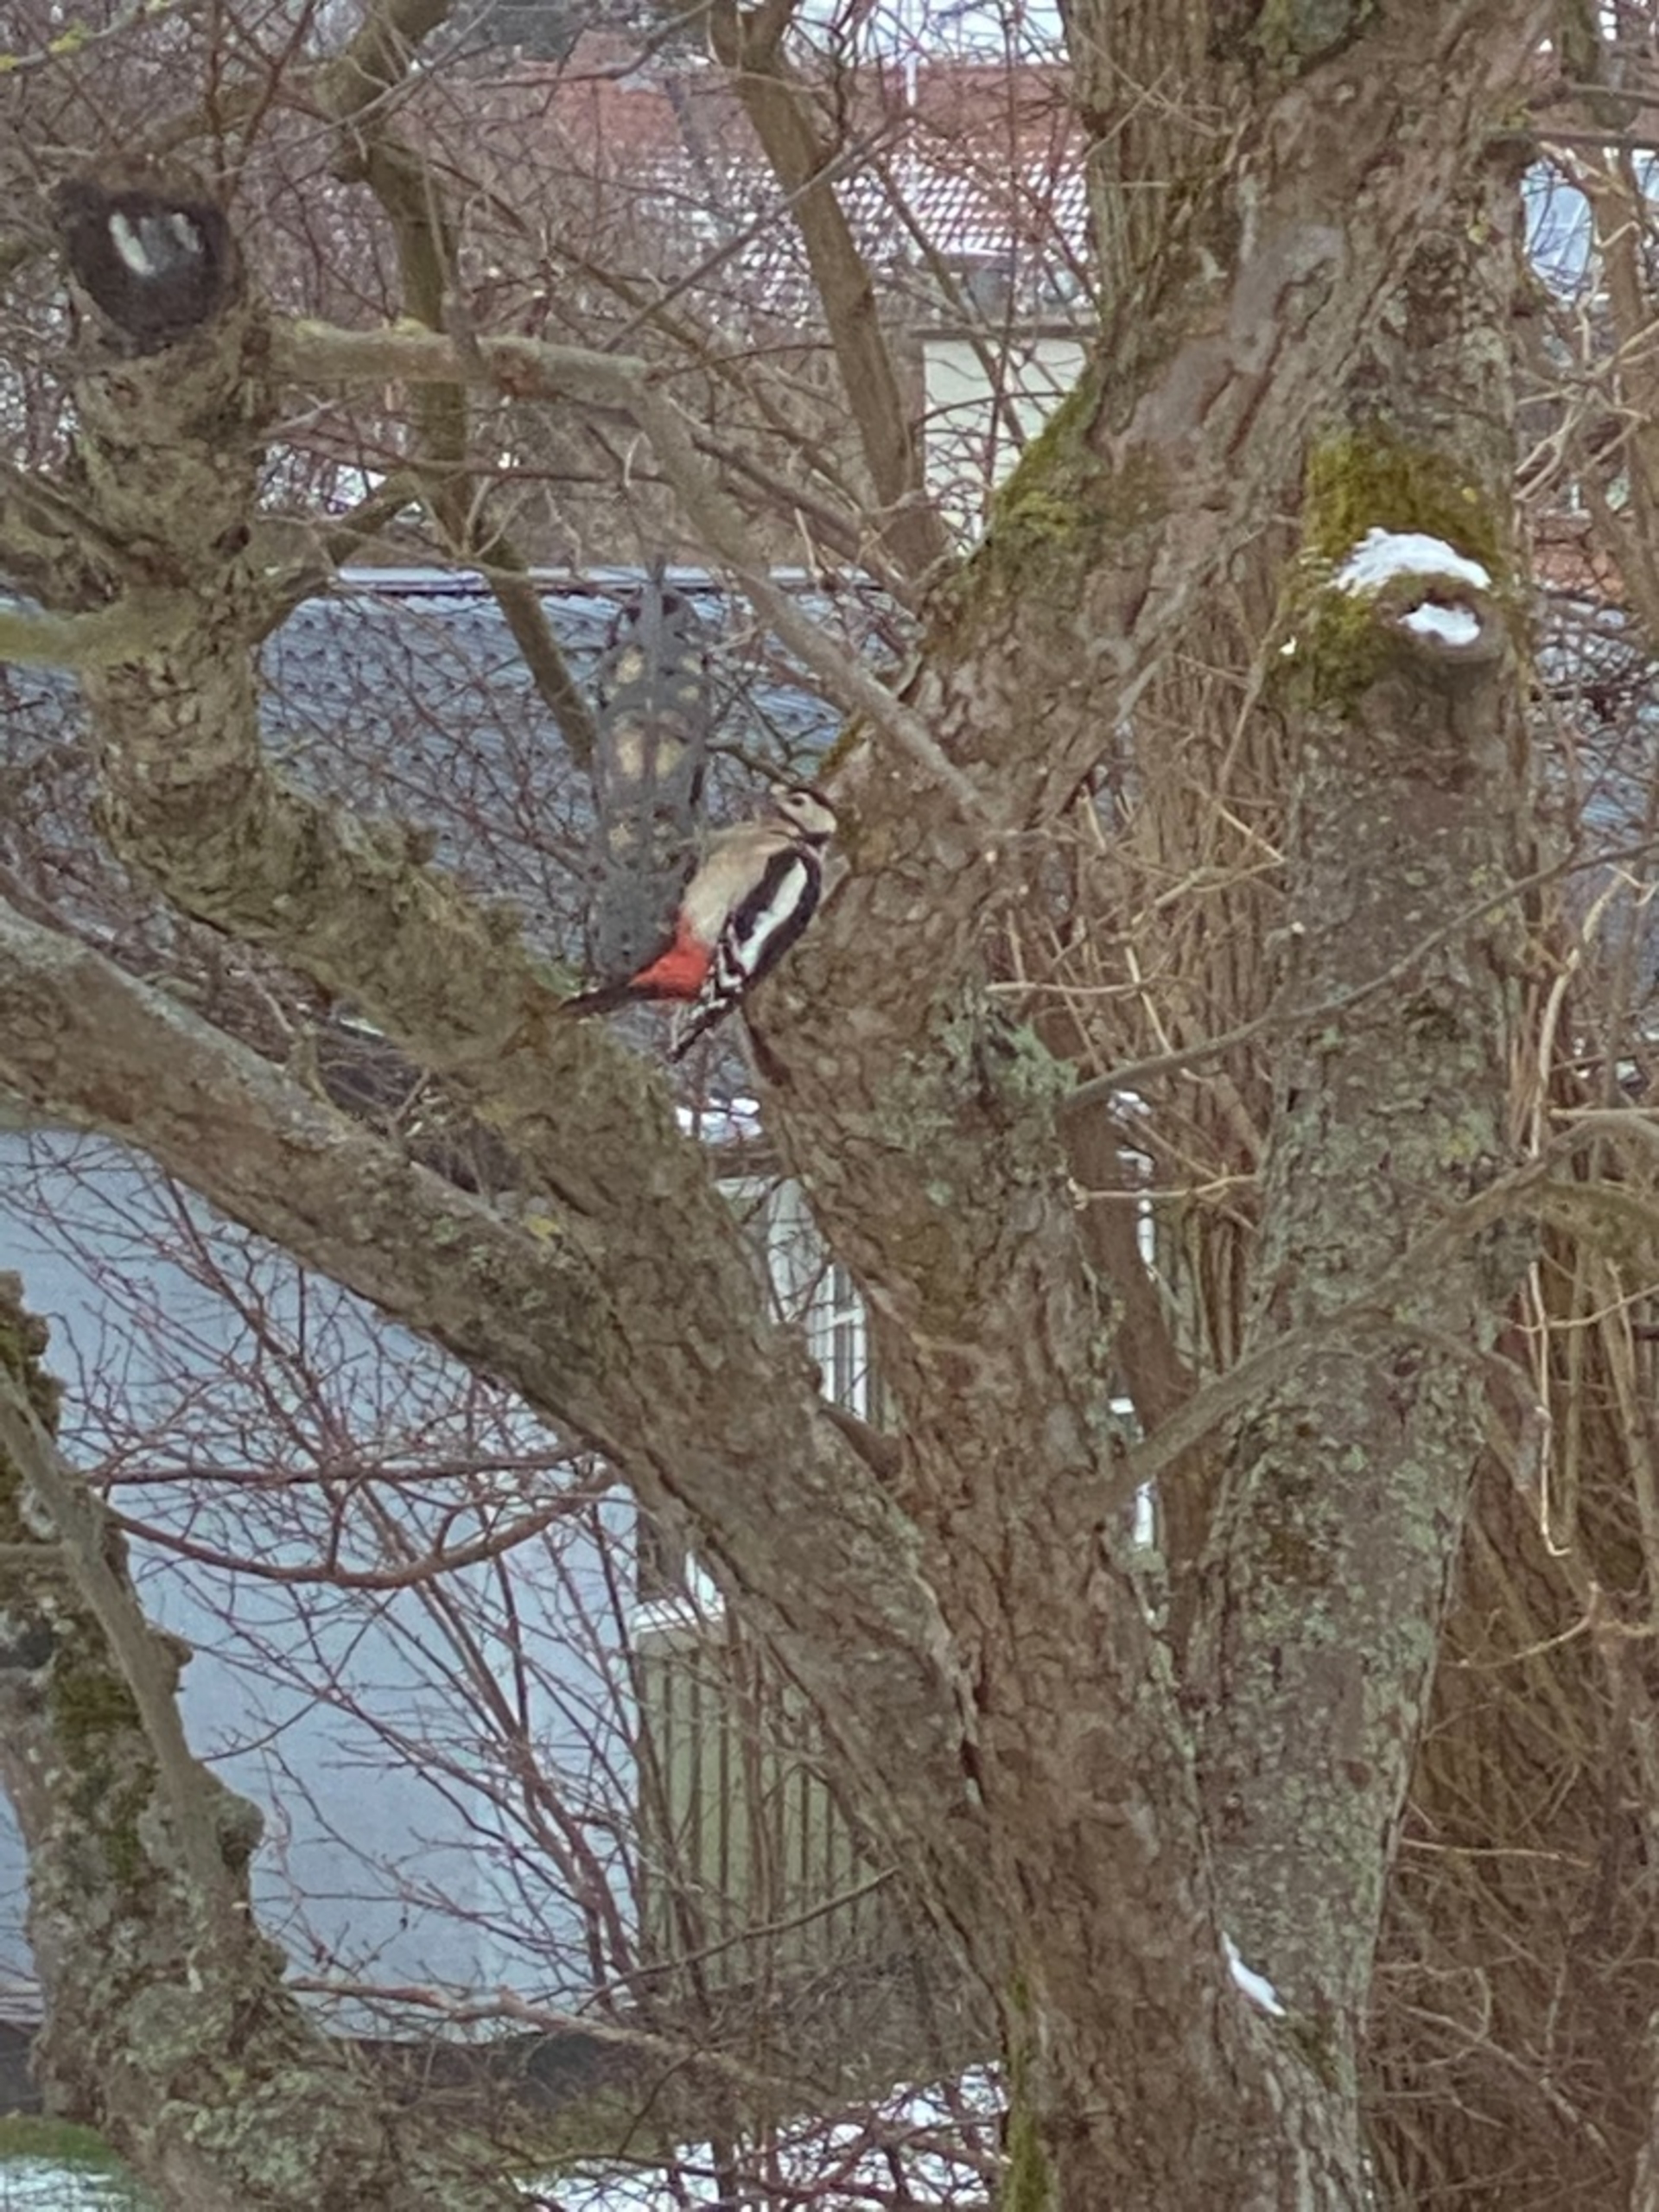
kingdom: Animalia
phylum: Chordata
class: Aves
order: Piciformes
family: Picidae
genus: Dendrocopos
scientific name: Dendrocopos major
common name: Stor flagspætte
